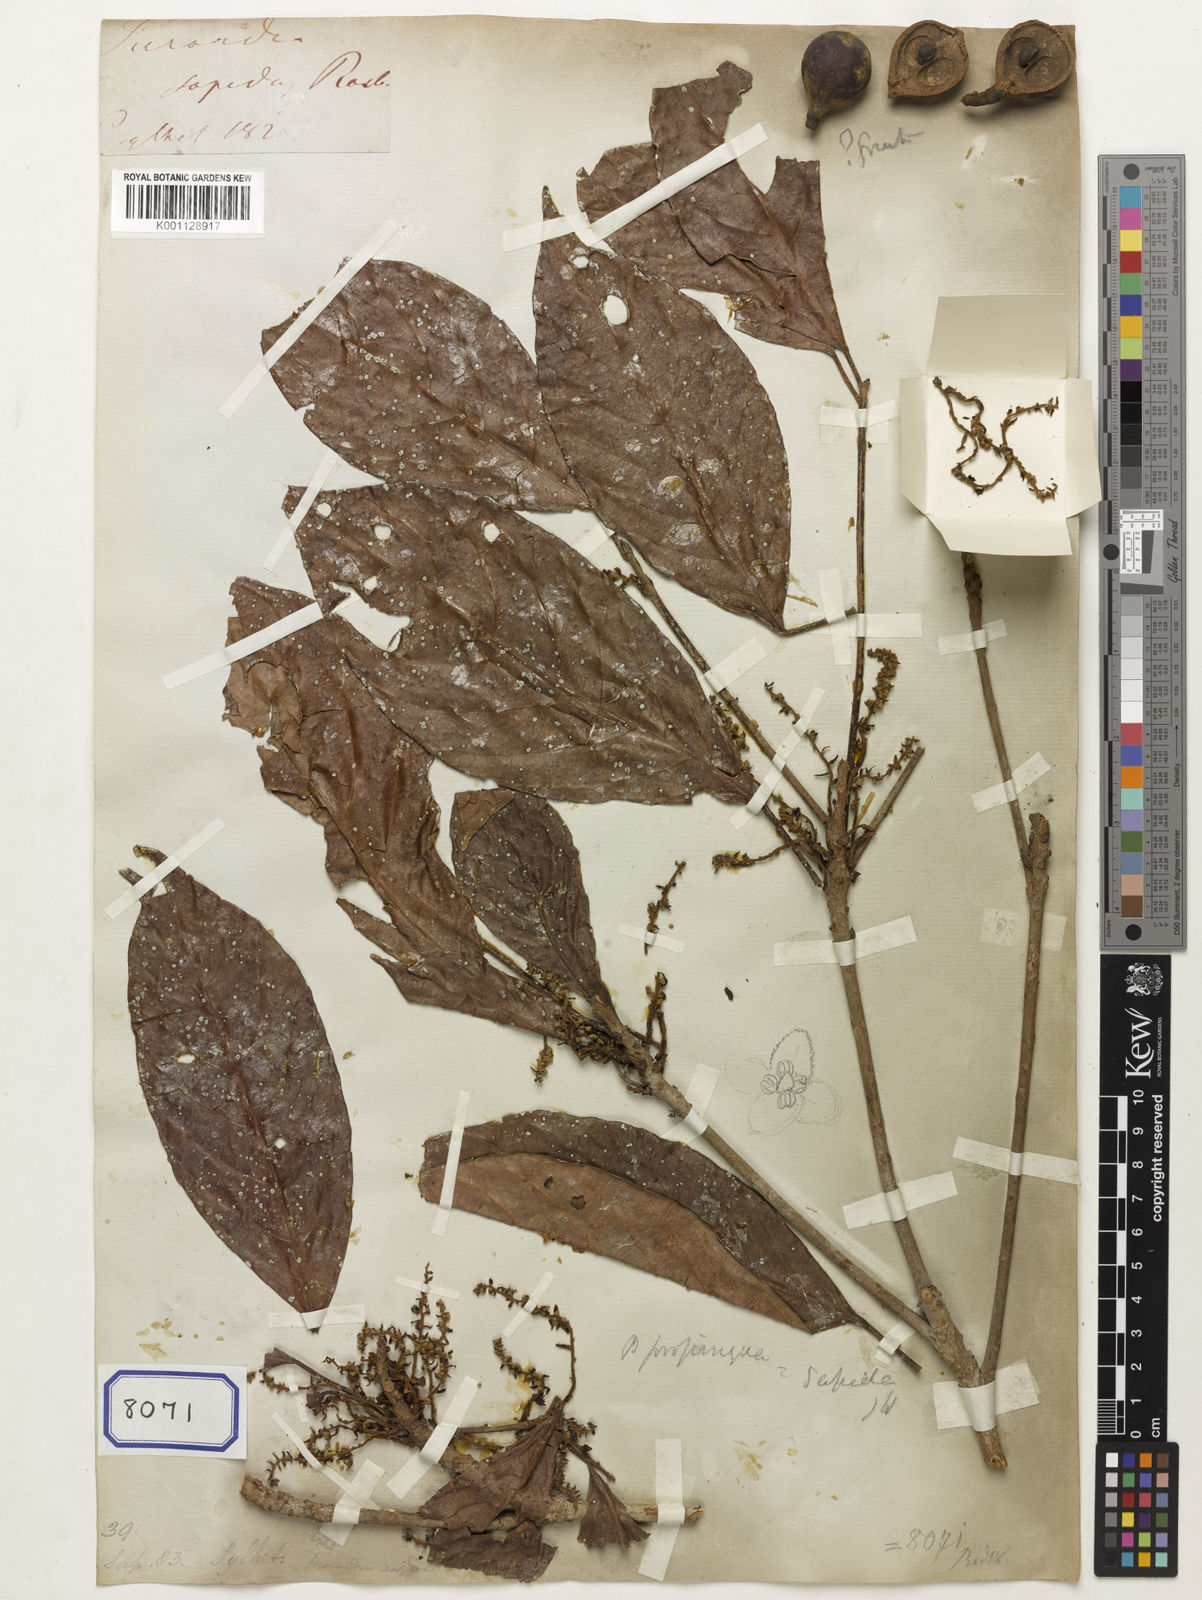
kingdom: Plantae
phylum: Tracheophyta
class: Magnoliopsida
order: Malpighiales
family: Phyllanthaceae
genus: Baccaurea
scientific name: Baccaurea
